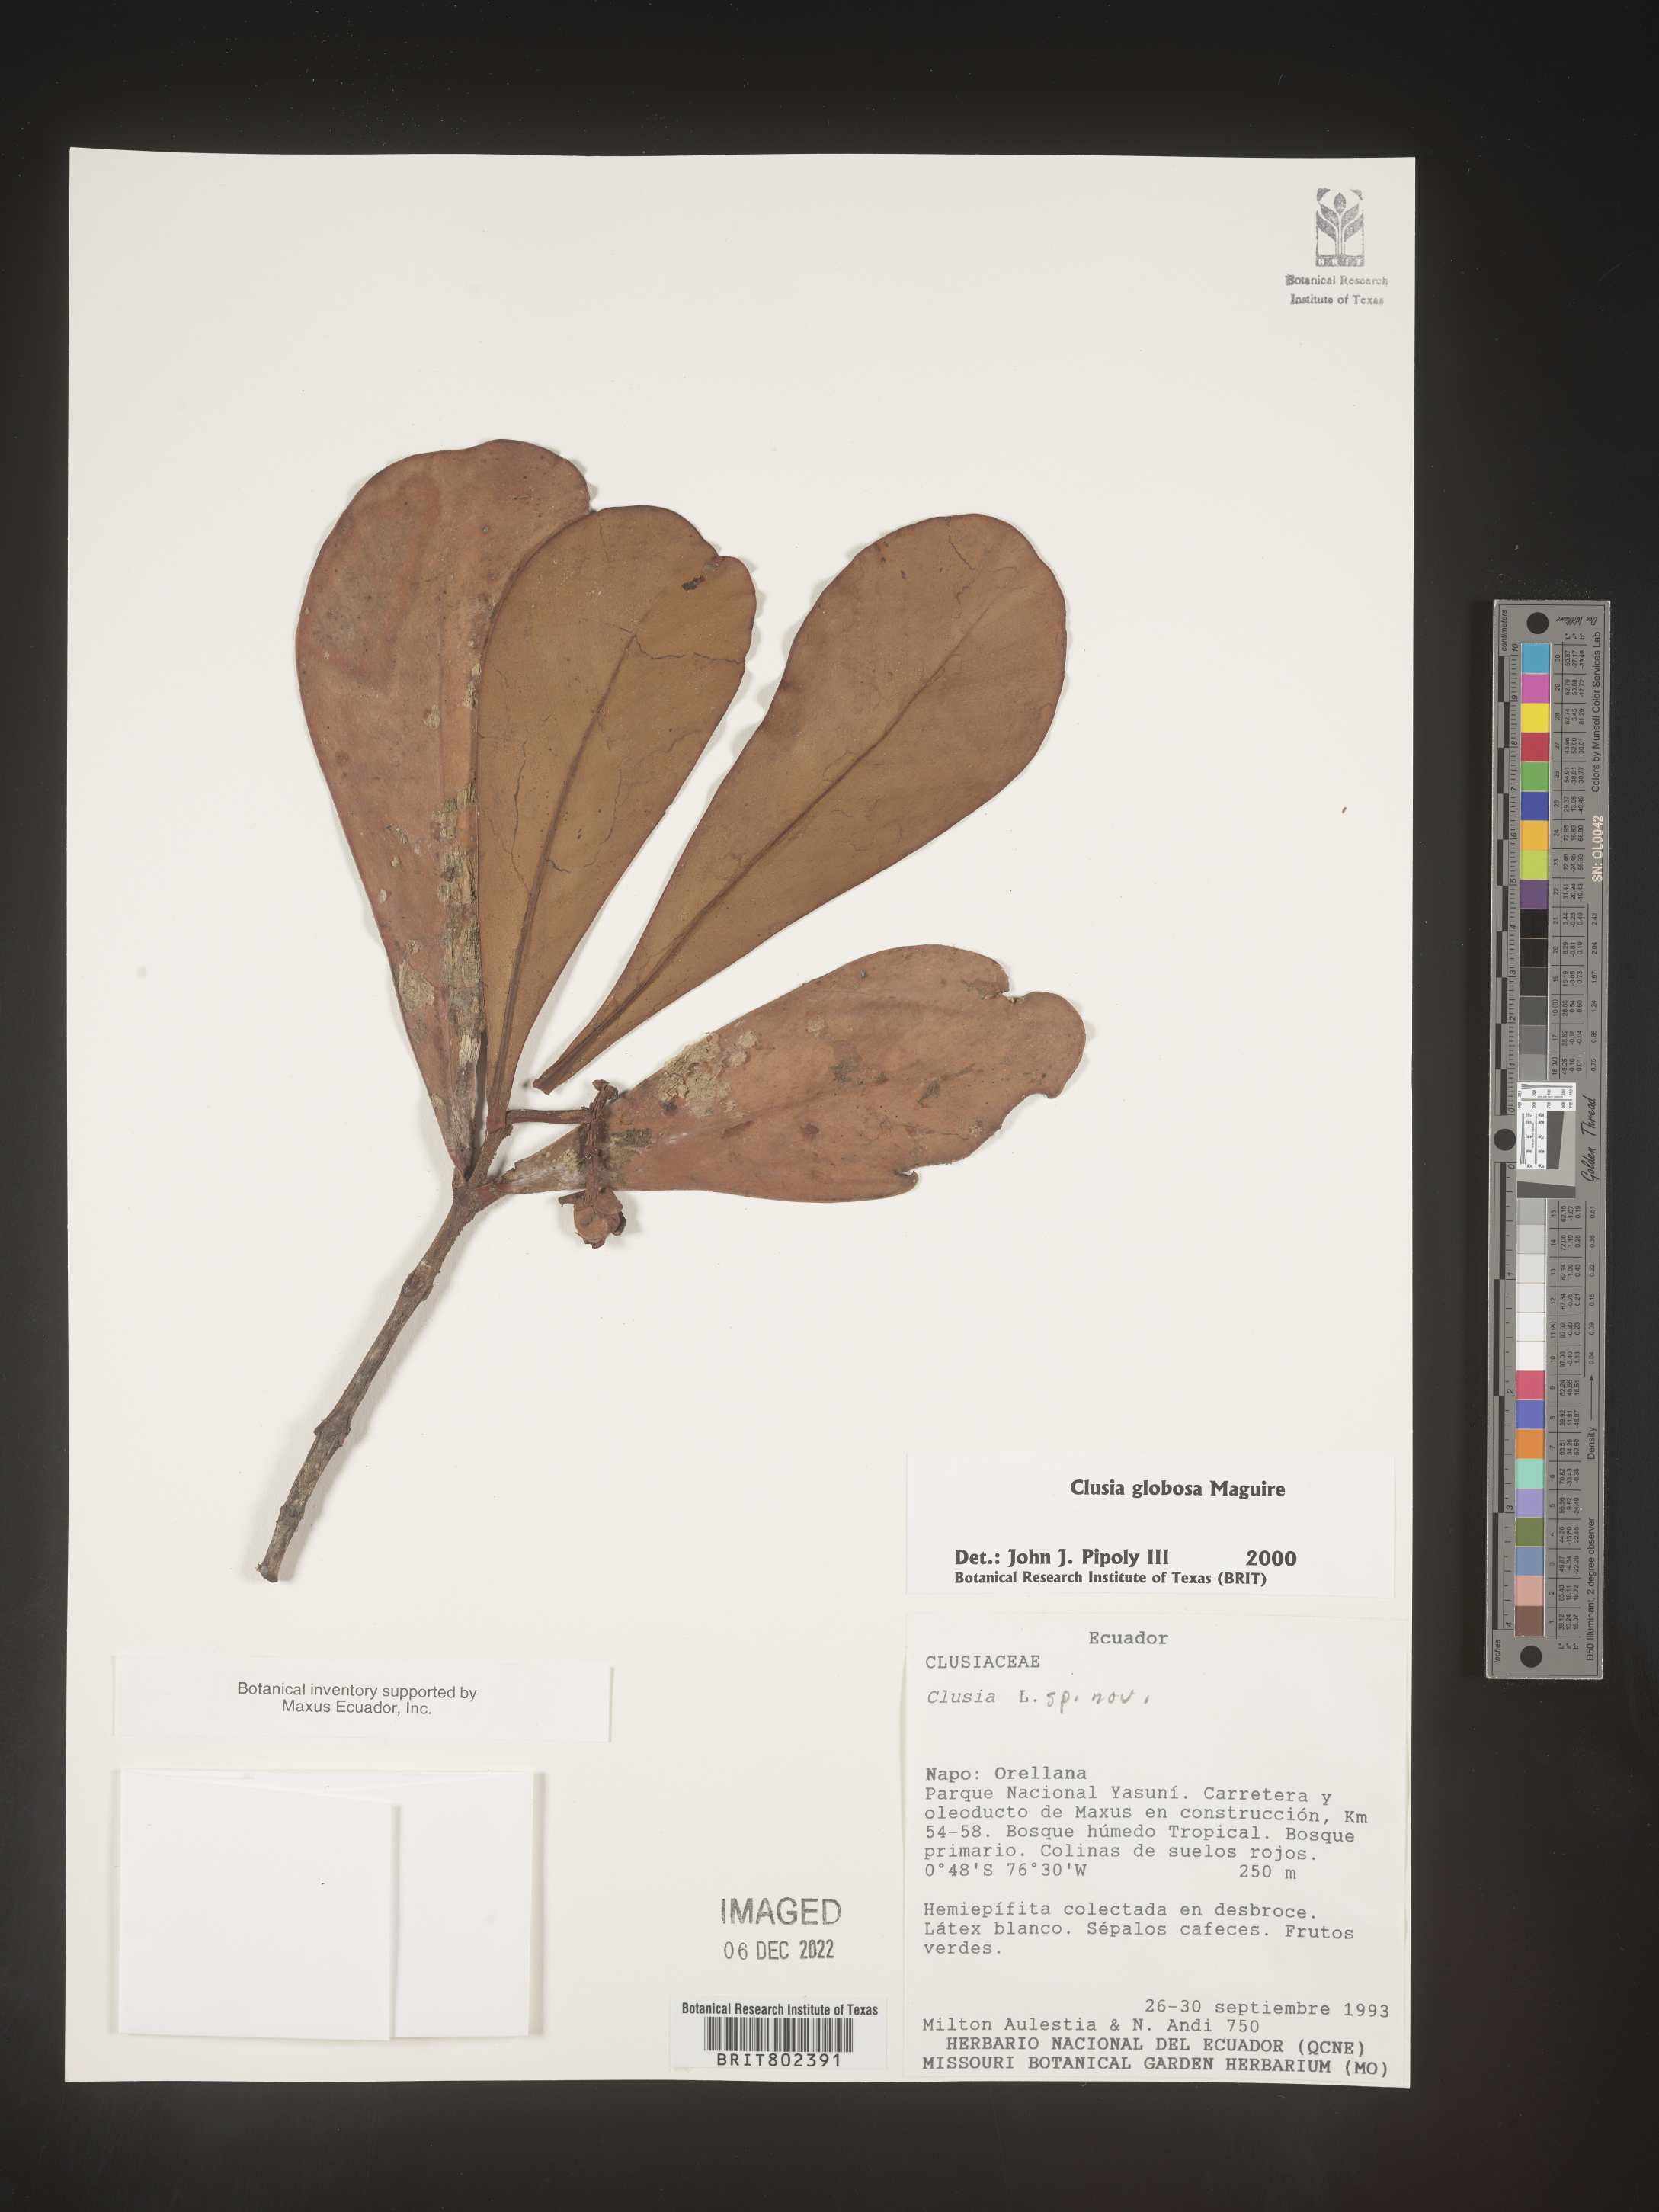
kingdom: Plantae
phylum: Tracheophyta
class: Magnoliopsida
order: Malpighiales
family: Clusiaceae
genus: Clusia
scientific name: Clusia
